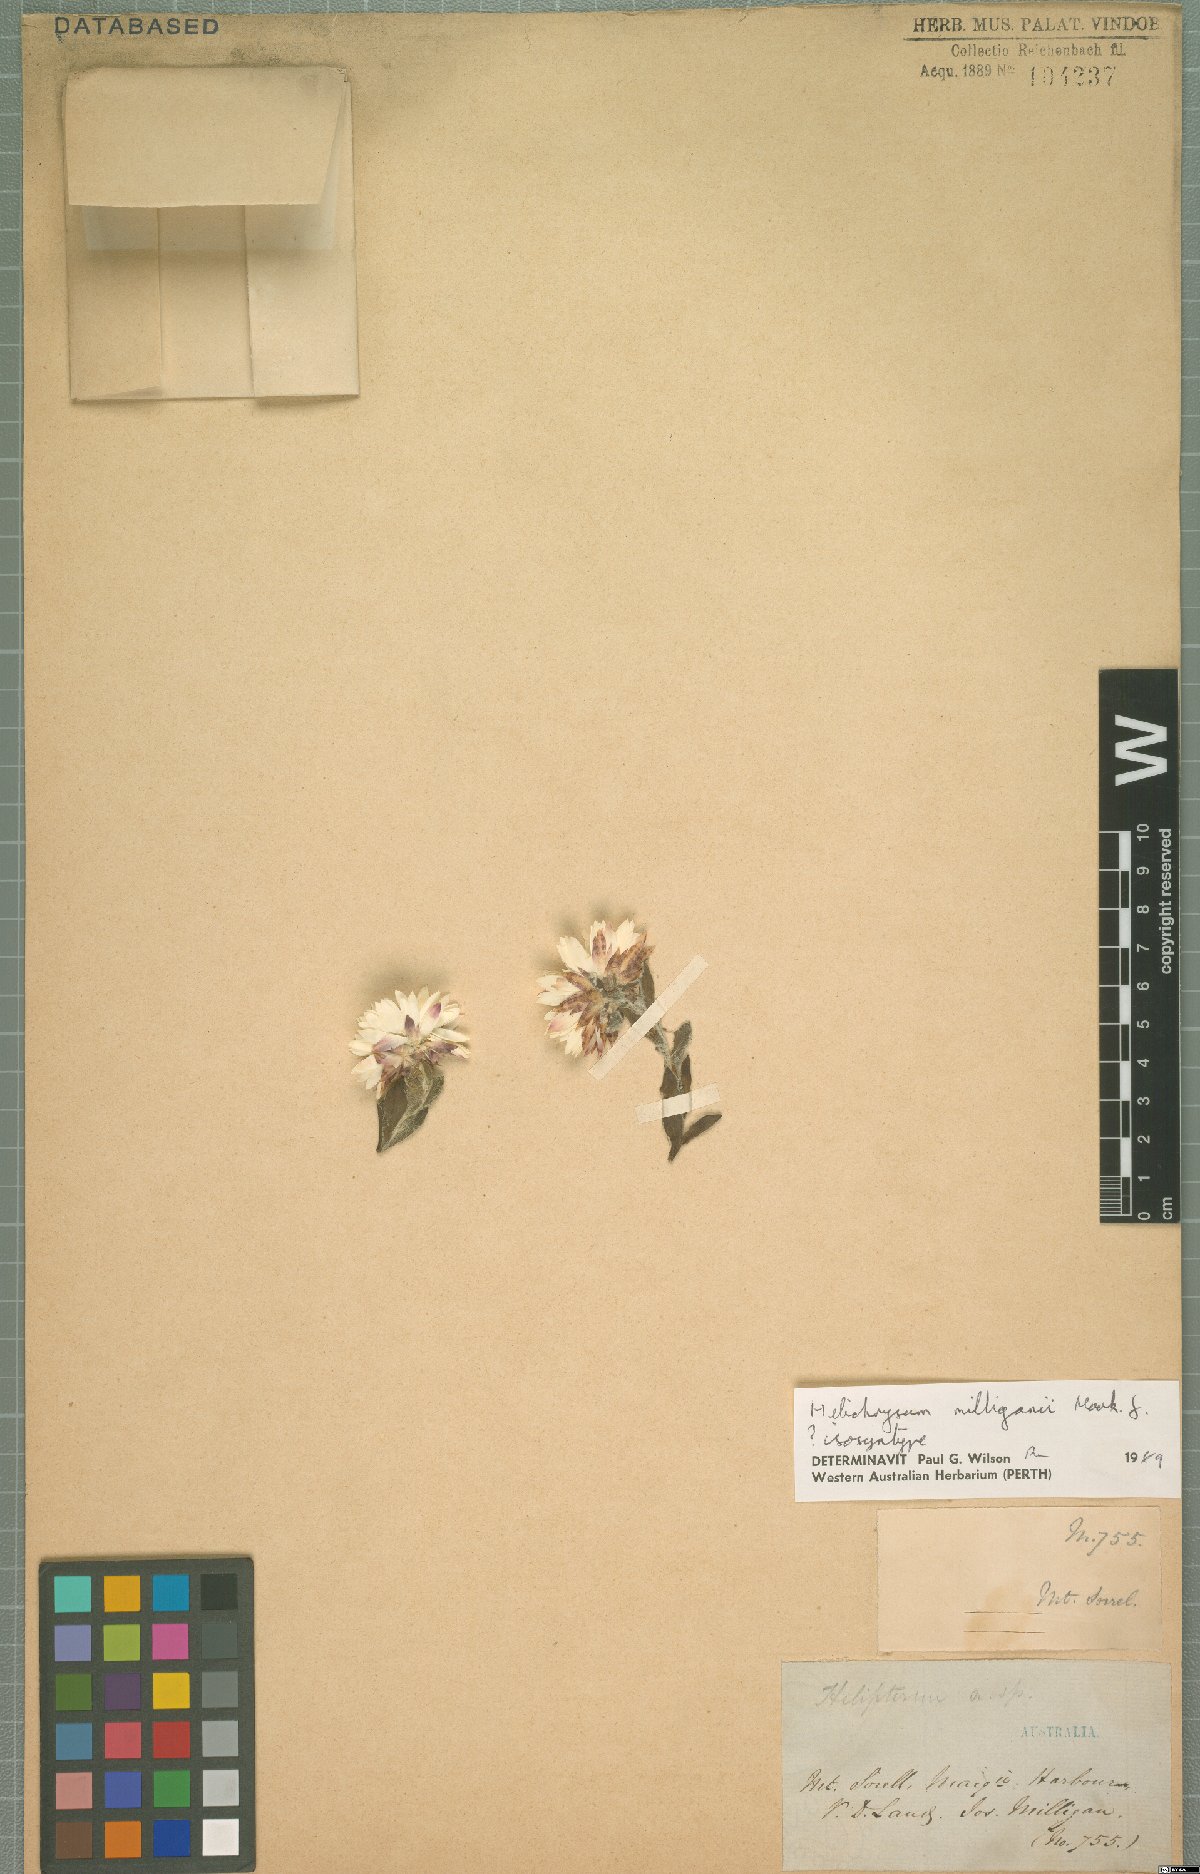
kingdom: Plantae
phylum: Tracheophyta
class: Magnoliopsida
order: Asterales
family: Asteraceae
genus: Xerochrysum
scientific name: Xerochrysum milliganii
